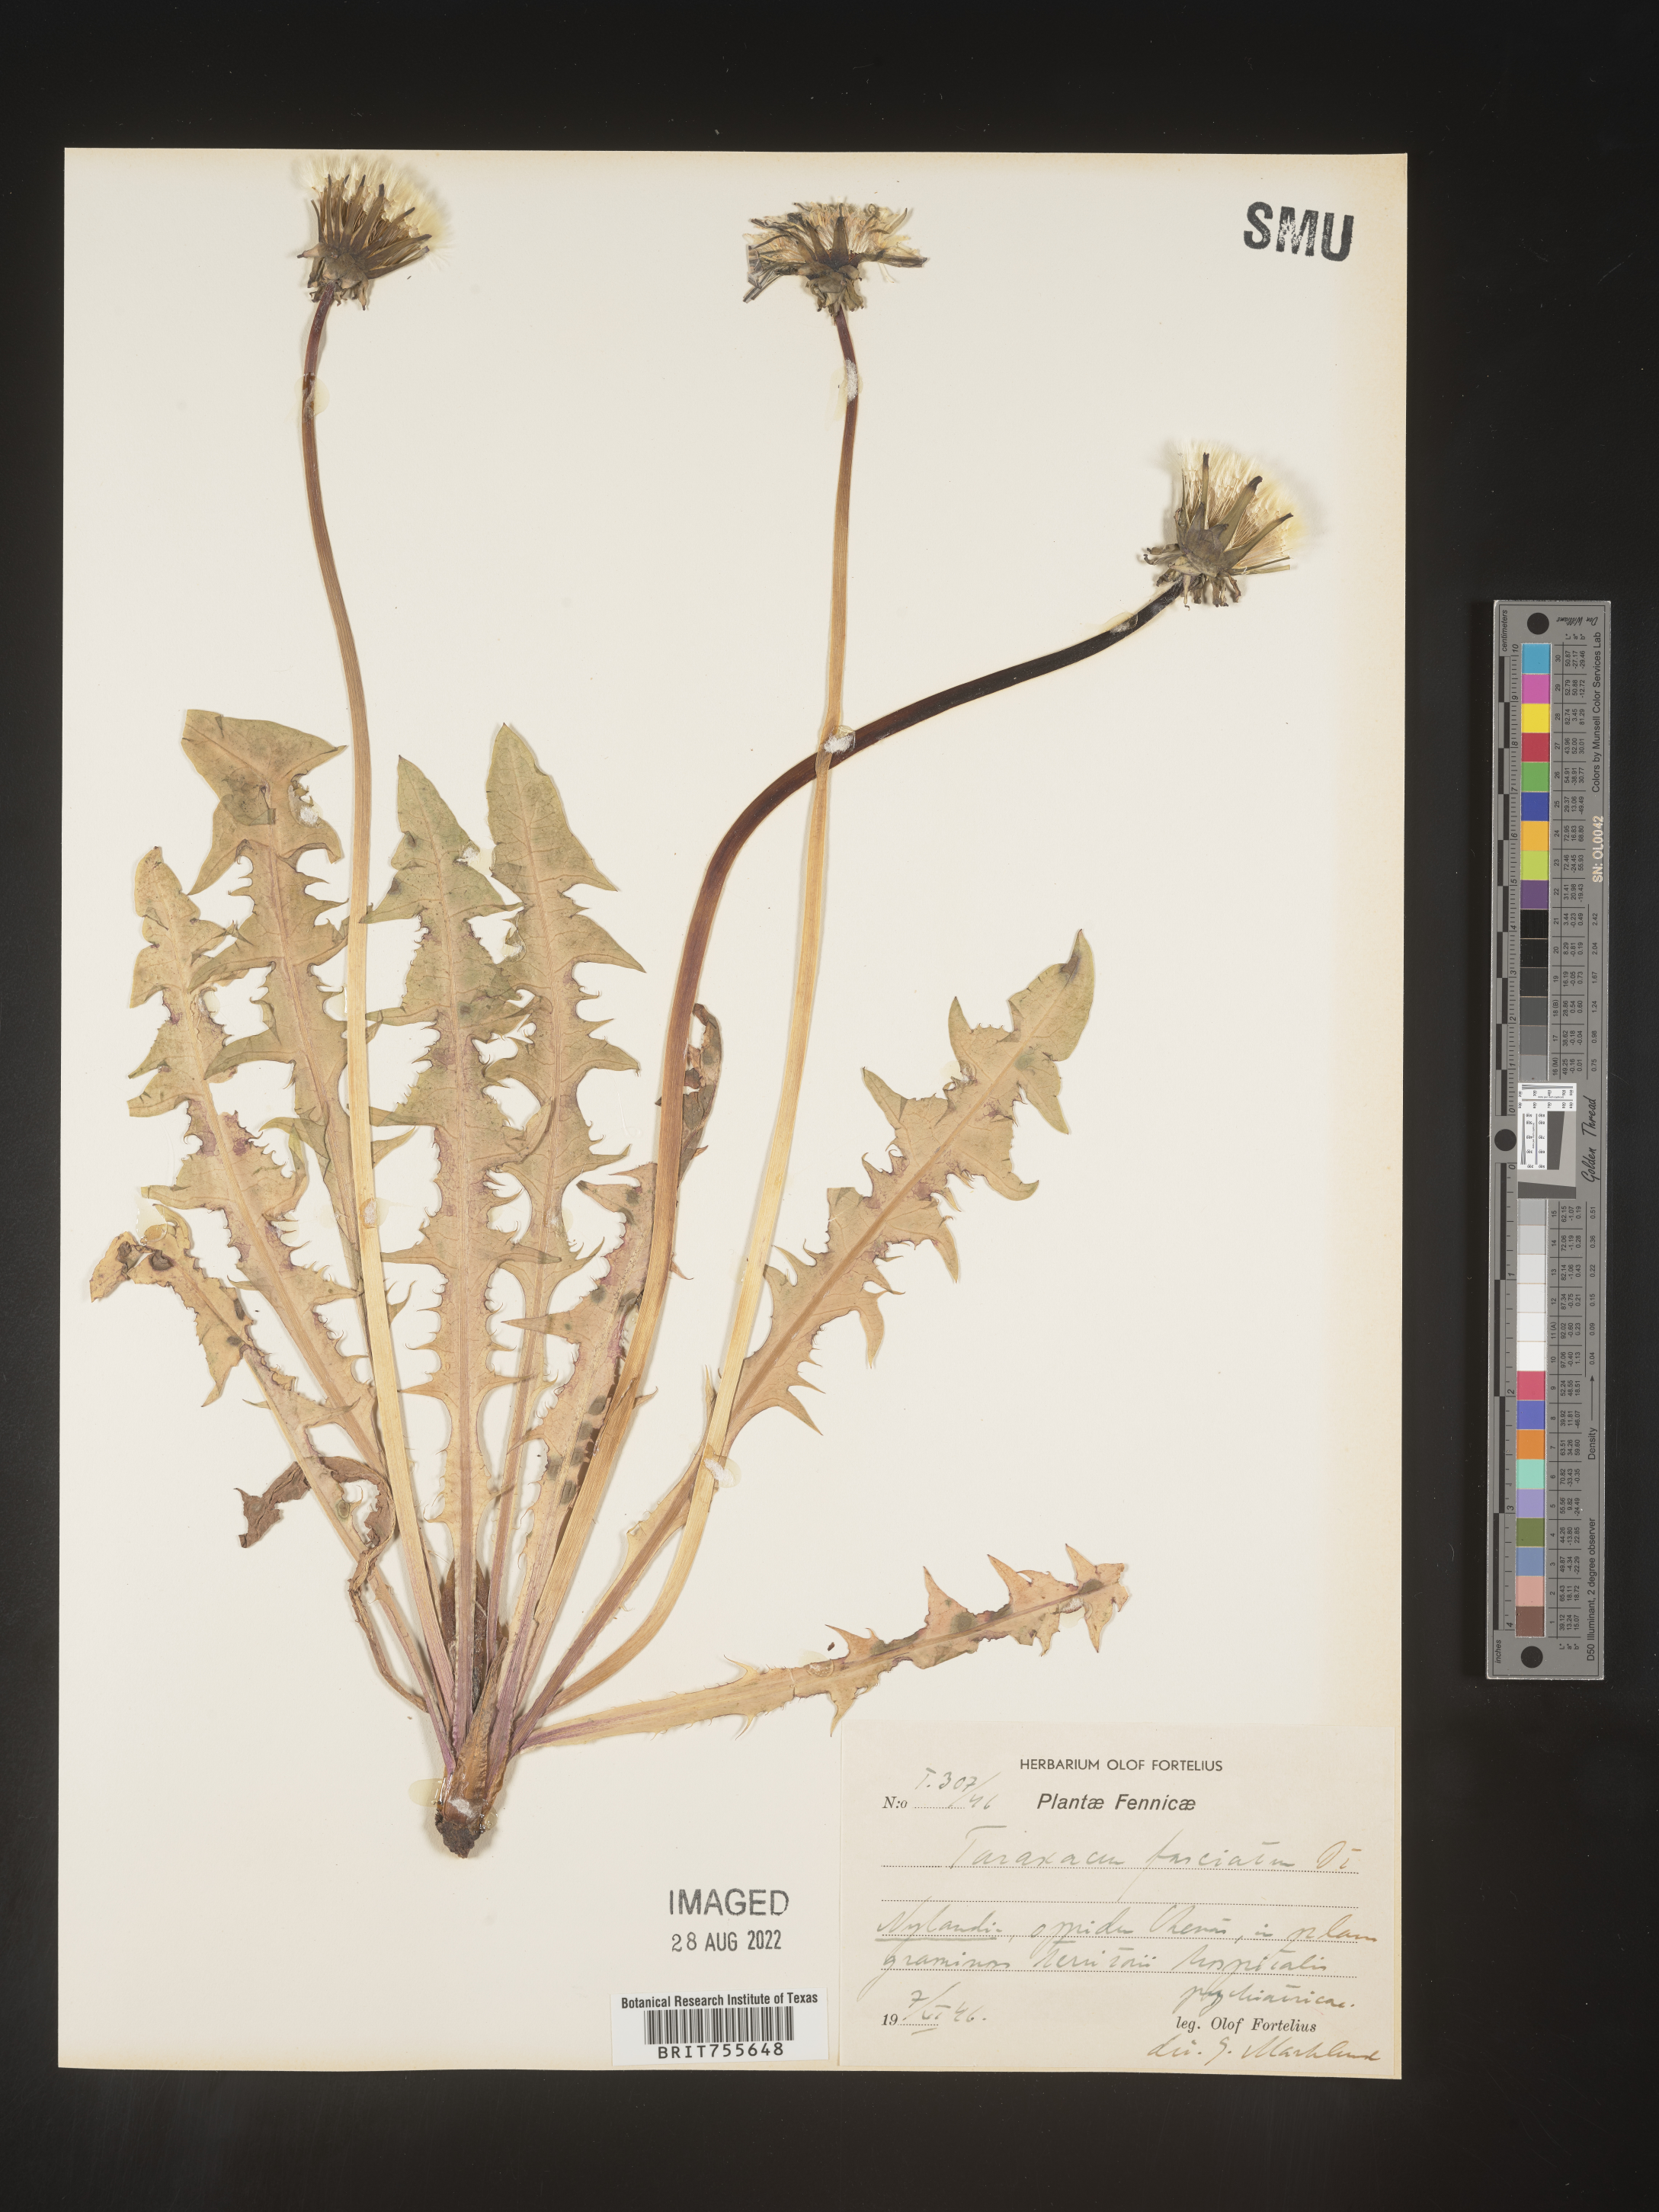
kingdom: Plantae
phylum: Tracheophyta
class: Magnoliopsida
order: Asterales
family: Asteraceae
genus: Taraxacum
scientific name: Taraxacum
